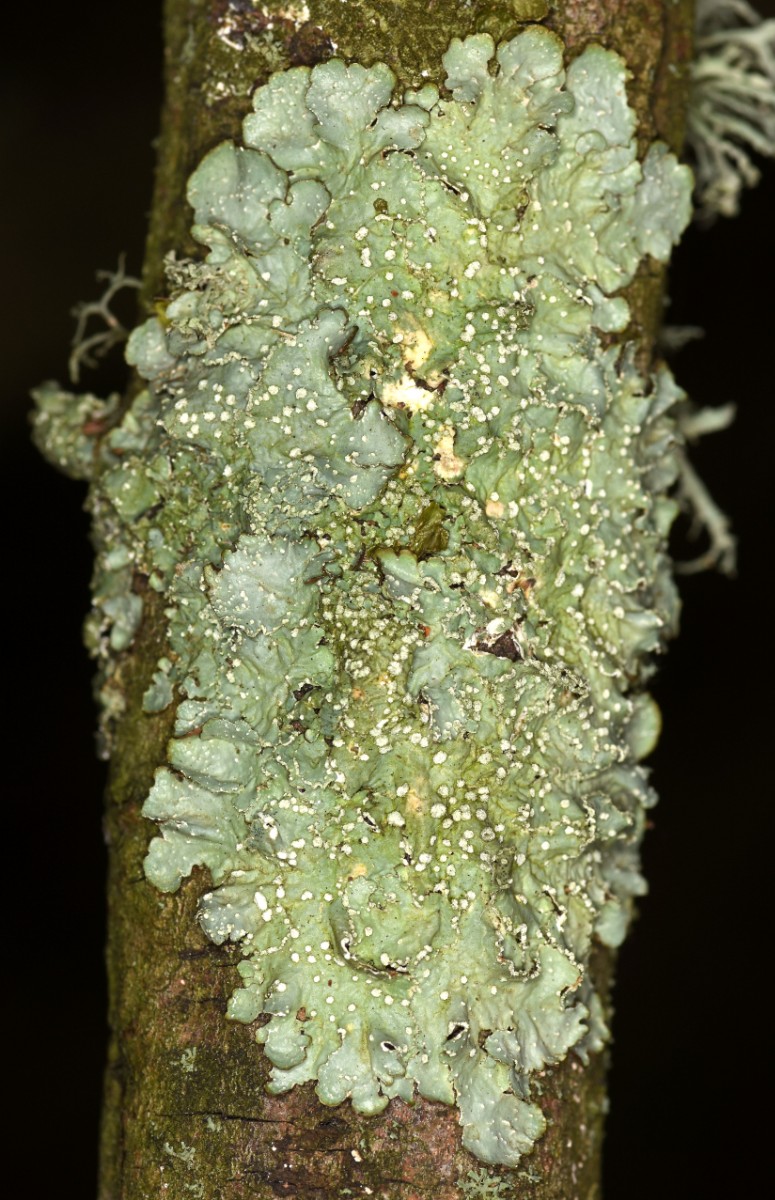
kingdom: Fungi
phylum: Ascomycota
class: Lecanoromycetes
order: Lecanorales
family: Parmeliaceae
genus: Punctelia
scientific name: Punctelia subrudecta
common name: punkt-skållav
